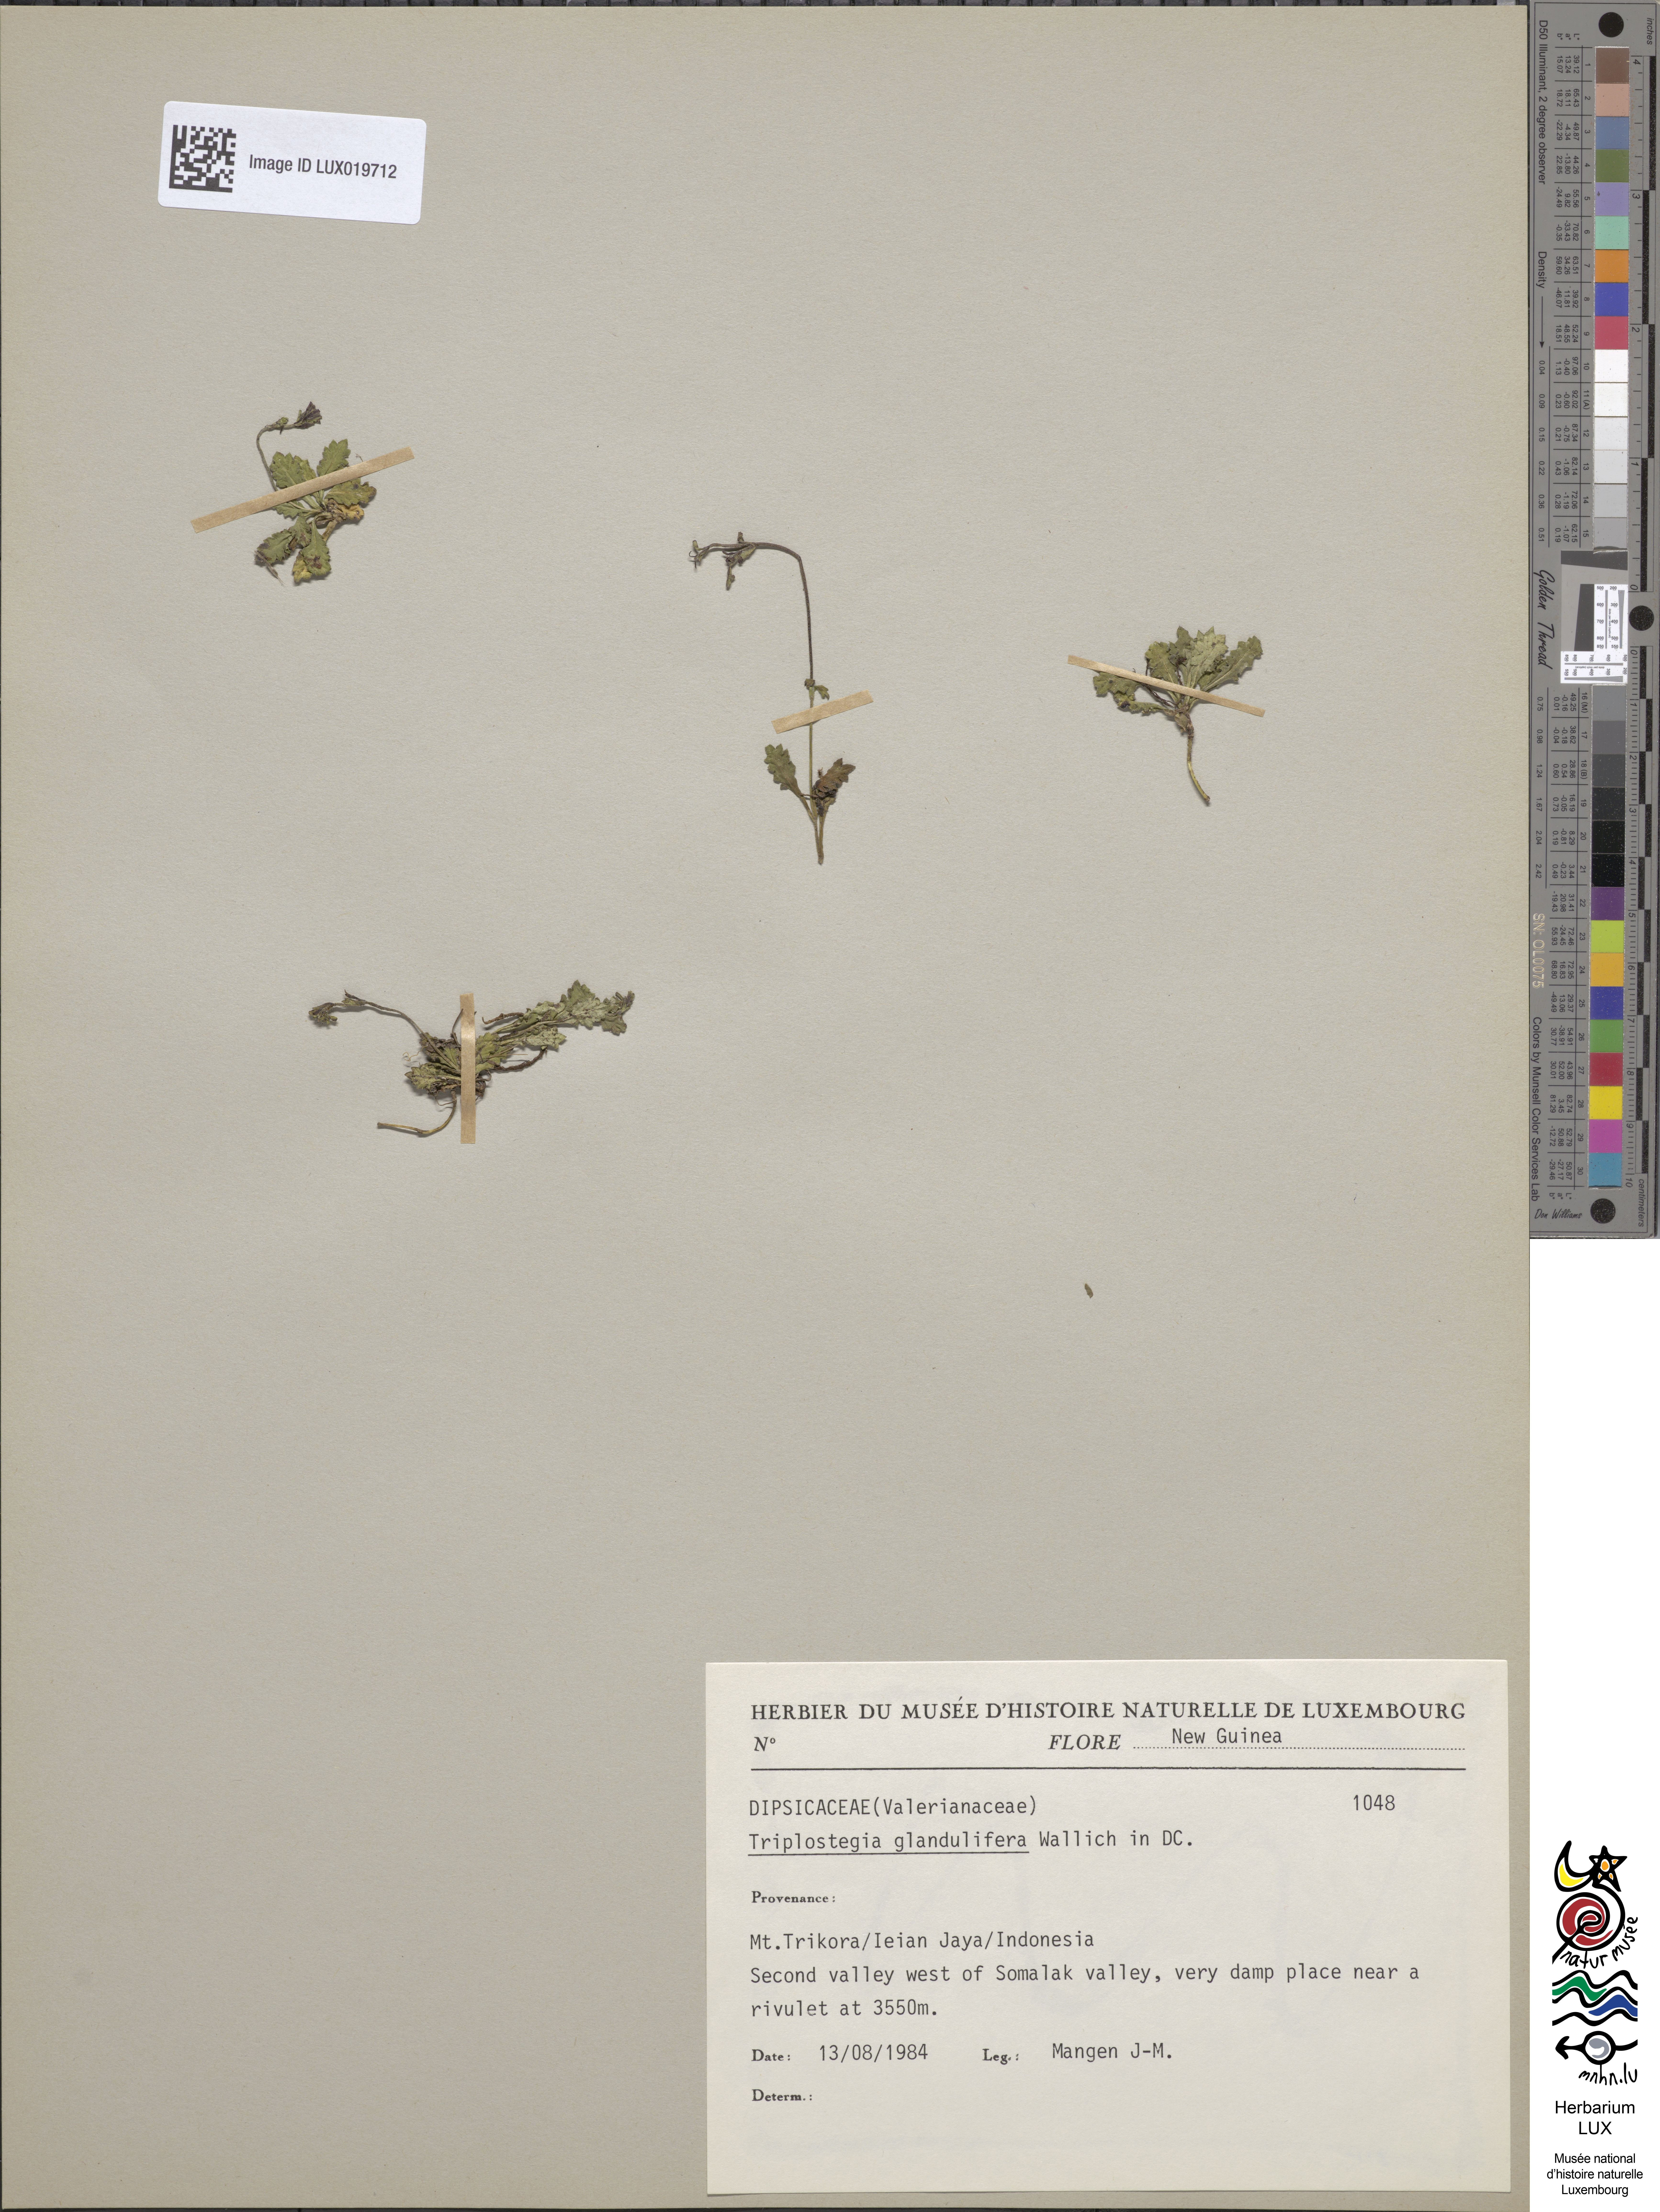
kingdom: Plantae
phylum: Tracheophyta
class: Magnoliopsida
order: Dipsacales
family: Caprifoliaceae
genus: Triplostegia
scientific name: Triplostegia glandulifera
